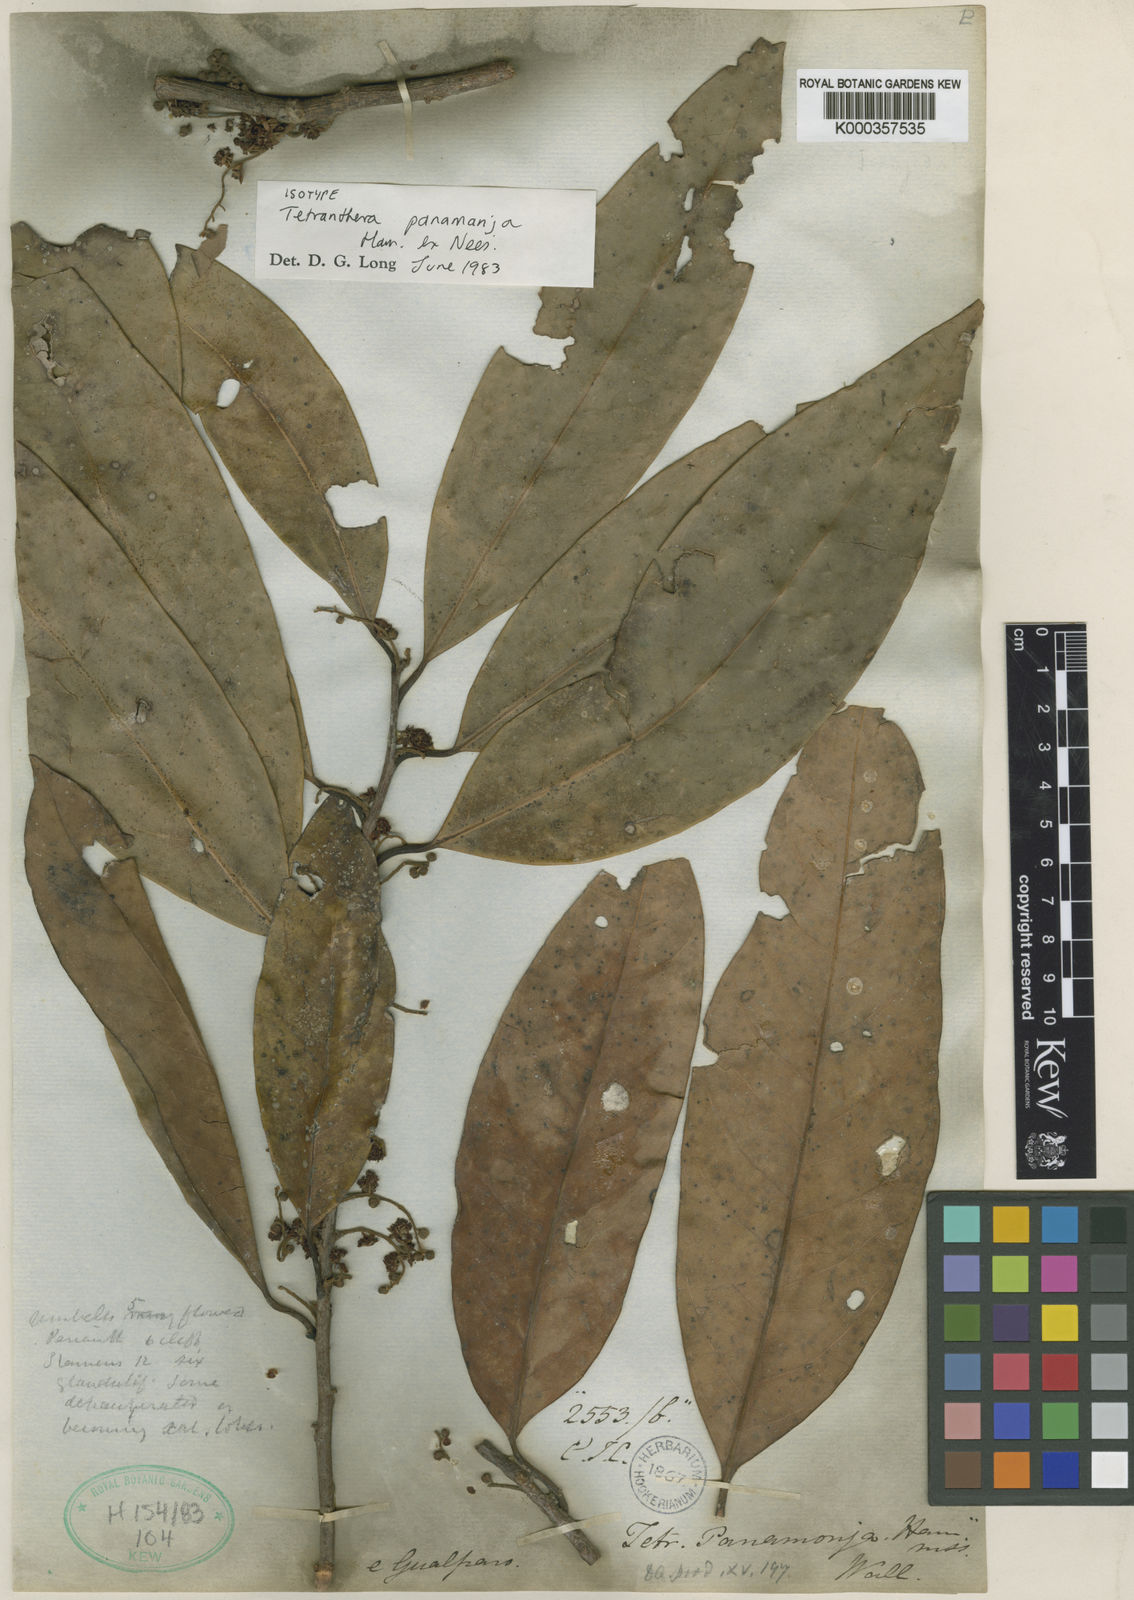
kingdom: Plantae
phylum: Tracheophyta
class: Magnoliopsida
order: Laurales
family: Lauraceae
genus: Litsea
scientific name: Litsea panamanja
